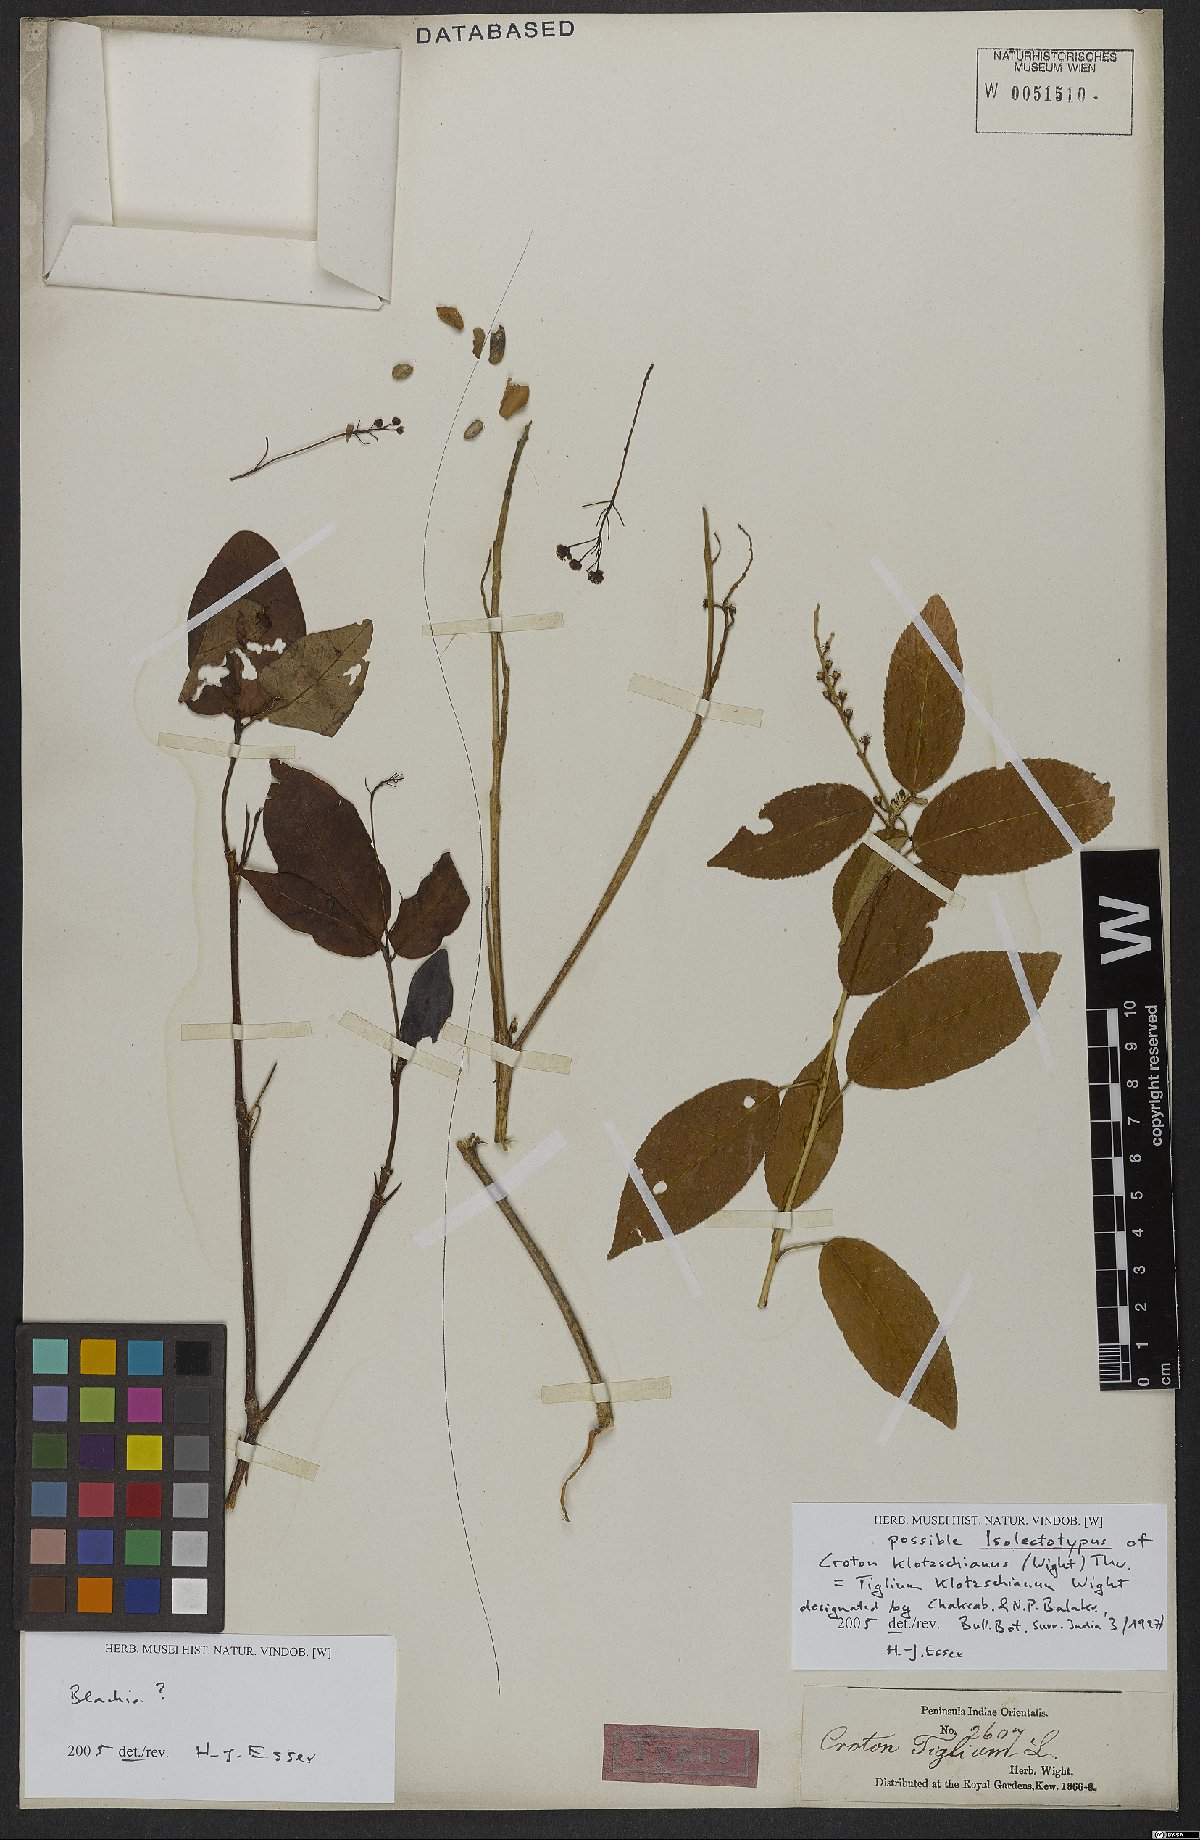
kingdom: Plantae
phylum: Tracheophyta
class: Magnoliopsida
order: Malpighiales
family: Euphorbiaceae
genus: Croton
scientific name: Croton klotzschianus
